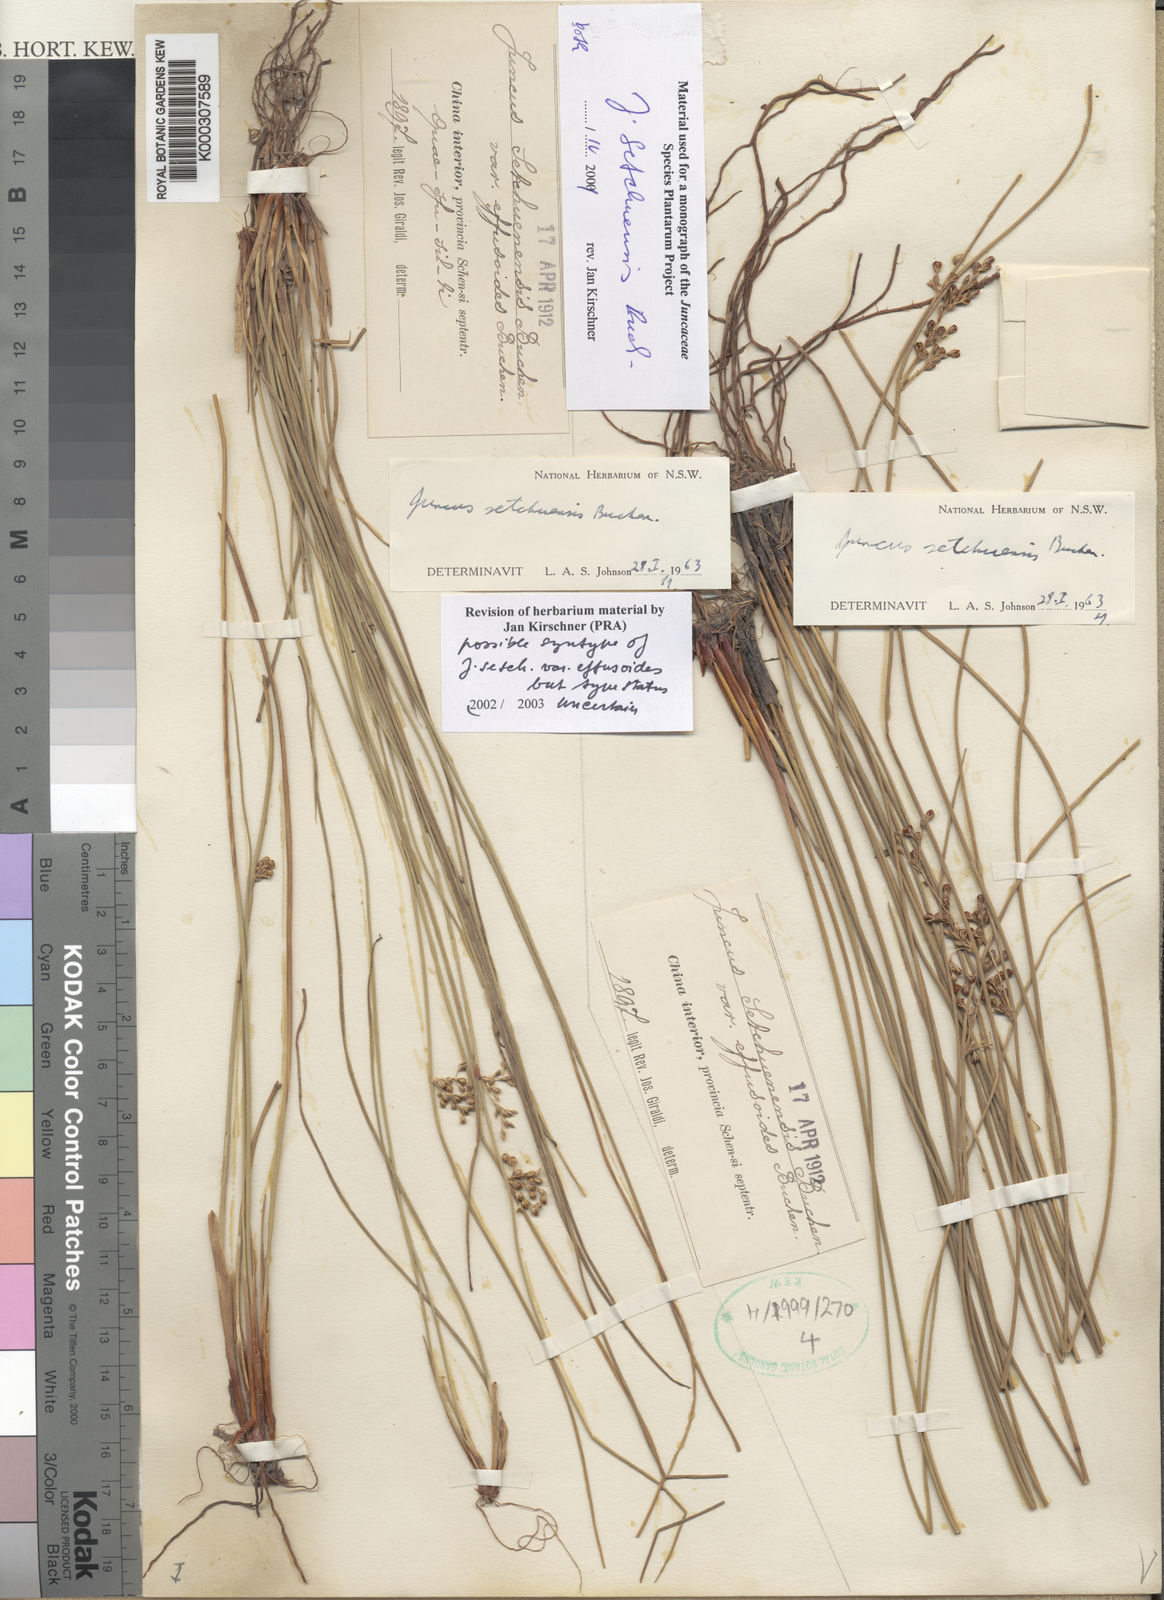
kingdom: Plantae
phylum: Tracheophyta
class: Liliopsida
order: Poales
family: Juncaceae
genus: Juncus
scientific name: Juncus setchuensis
